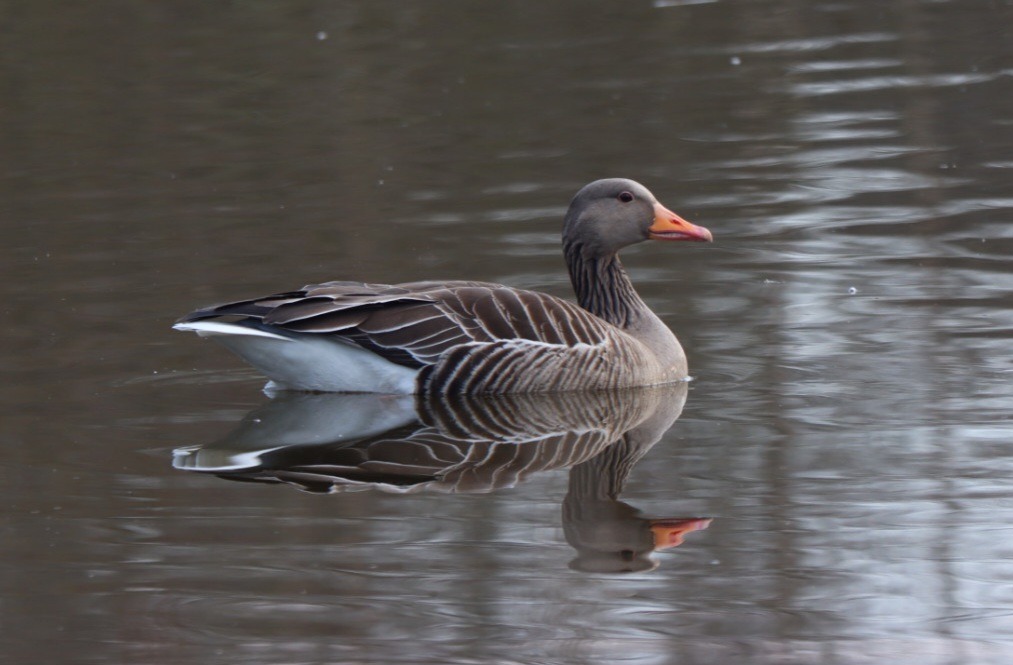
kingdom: Animalia
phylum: Chordata
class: Aves
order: Anseriformes
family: Anatidae
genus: Anser
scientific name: Anser anser
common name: Grågås
